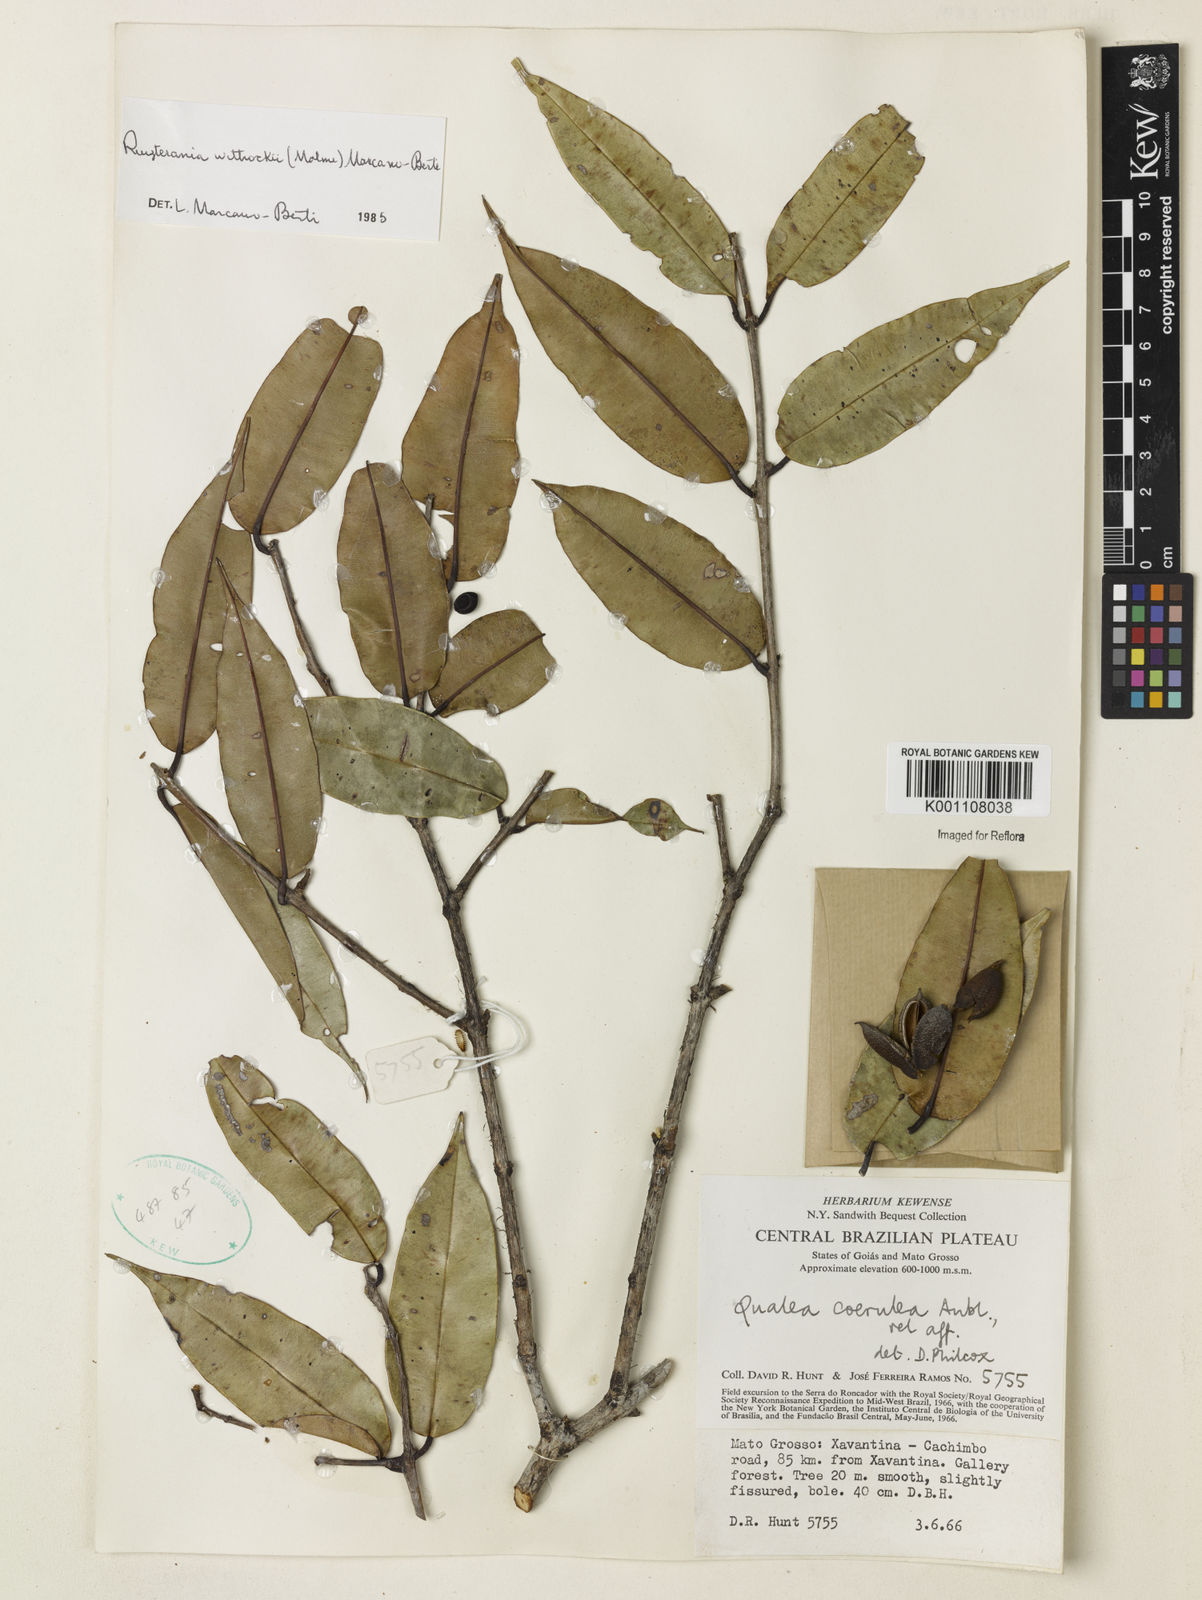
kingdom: Plantae
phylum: Tracheophyta
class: Magnoliopsida
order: Myrtales
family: Vochysiaceae
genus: Ruizterania
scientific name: Ruizterania wittrockii
